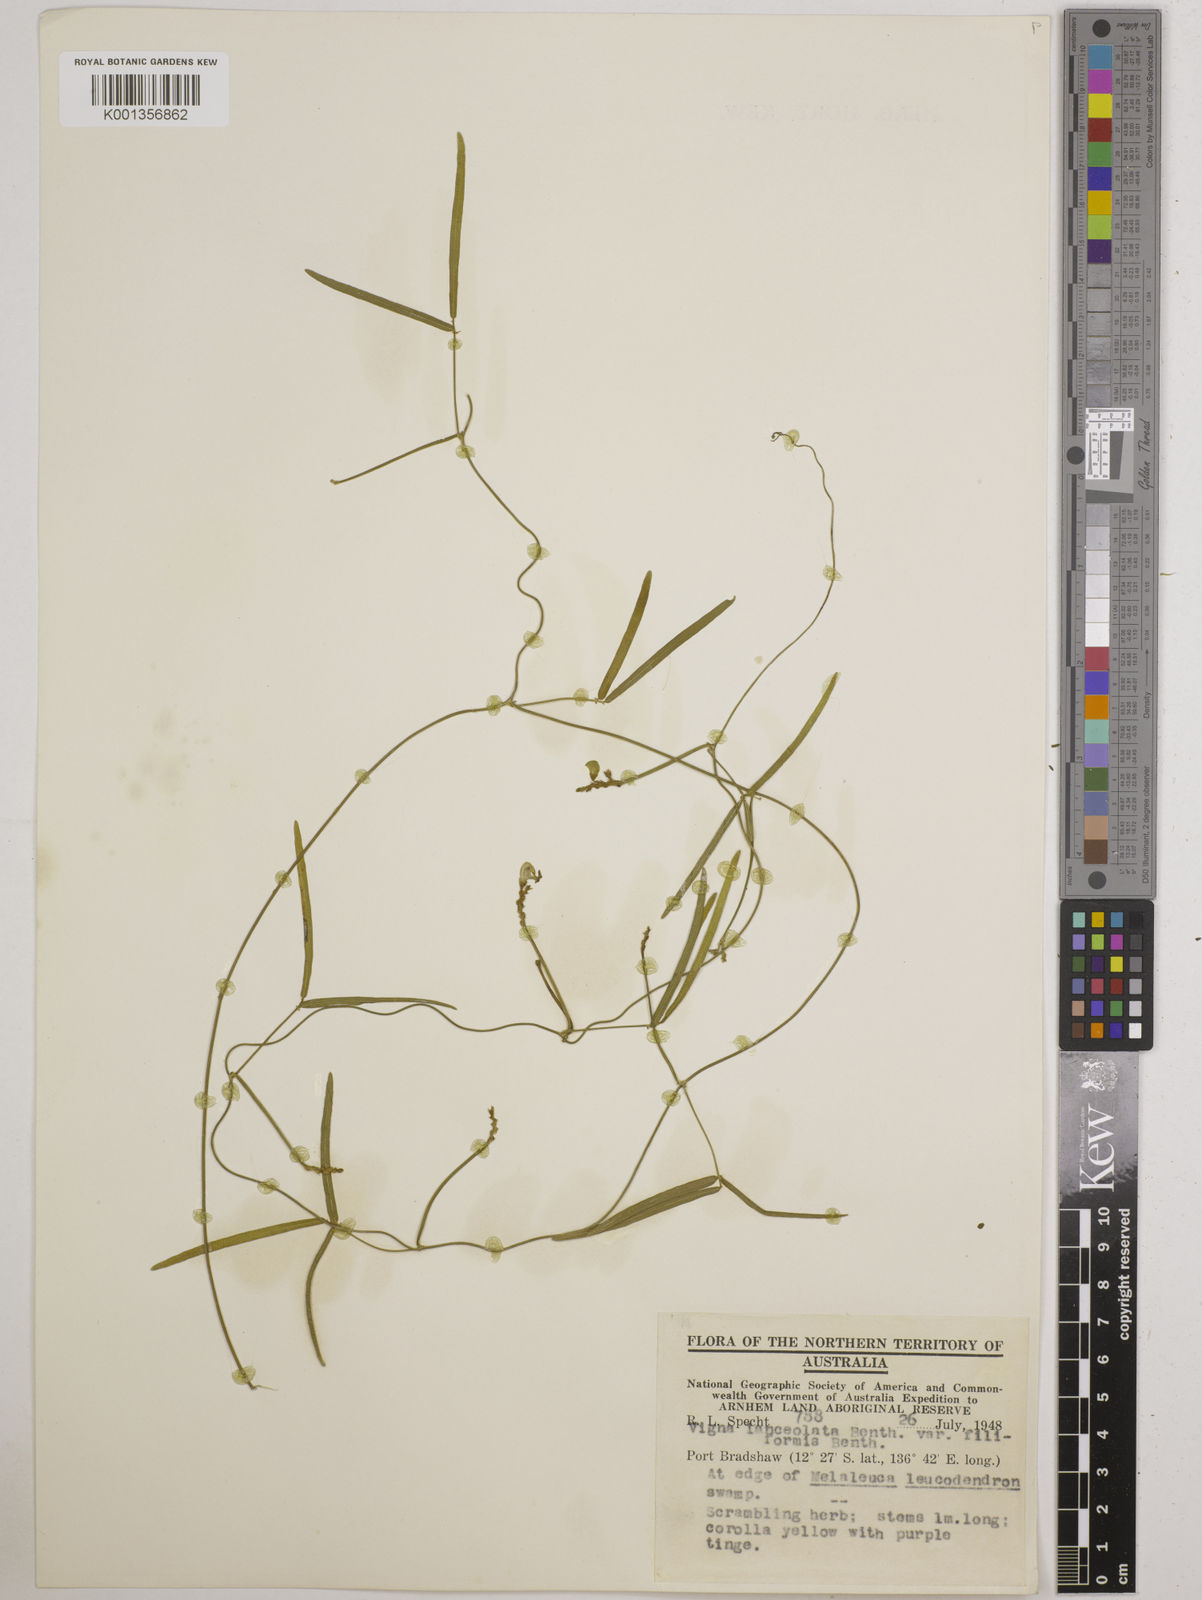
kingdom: Plantae
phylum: Tracheophyta
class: Magnoliopsida
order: Fabales
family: Fabaceae
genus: Vigna
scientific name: Vigna lanceolata
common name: Maloga-bean
